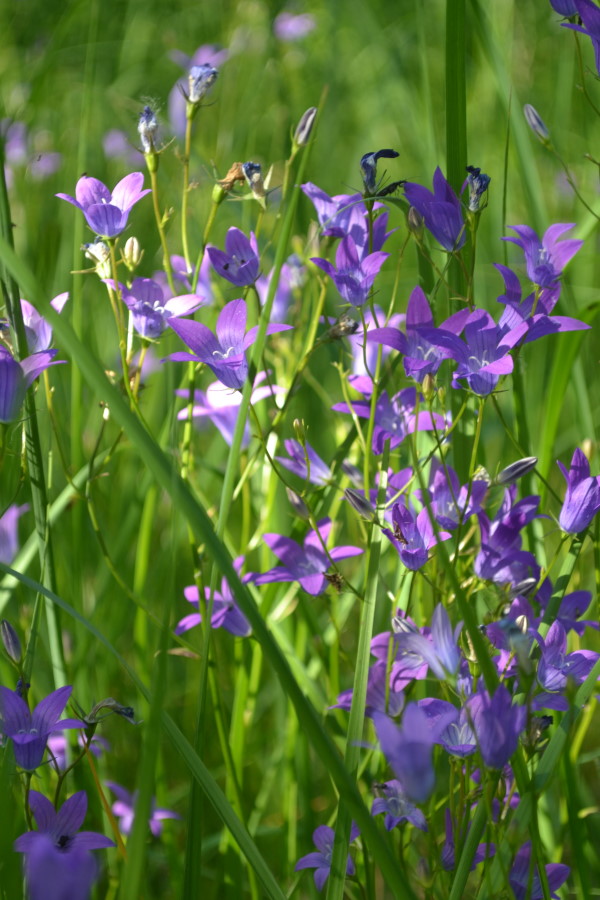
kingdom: Plantae
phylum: Tracheophyta
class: Magnoliopsida
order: Asterales
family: Campanulaceae
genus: Campanula
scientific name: Campanula patula
